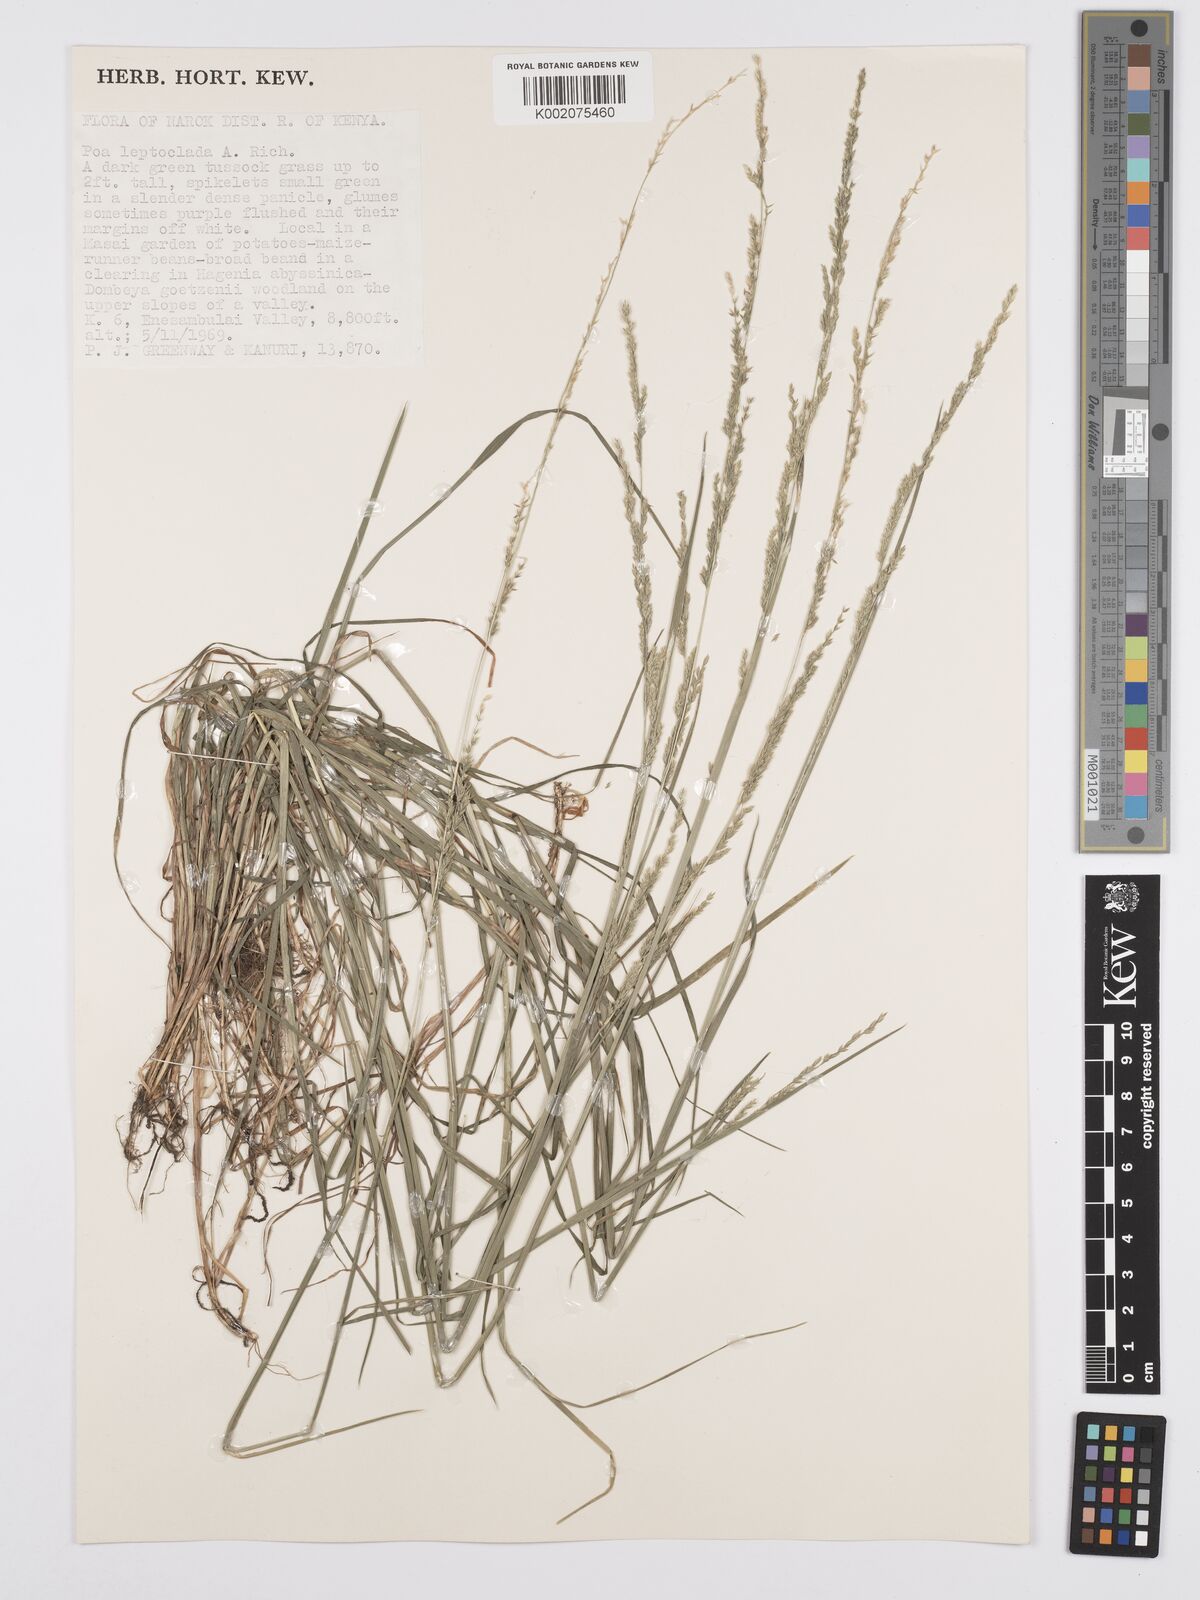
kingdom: Plantae
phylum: Tracheophyta
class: Liliopsida
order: Poales
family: Poaceae
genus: Poa
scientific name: Poa leptoclada
